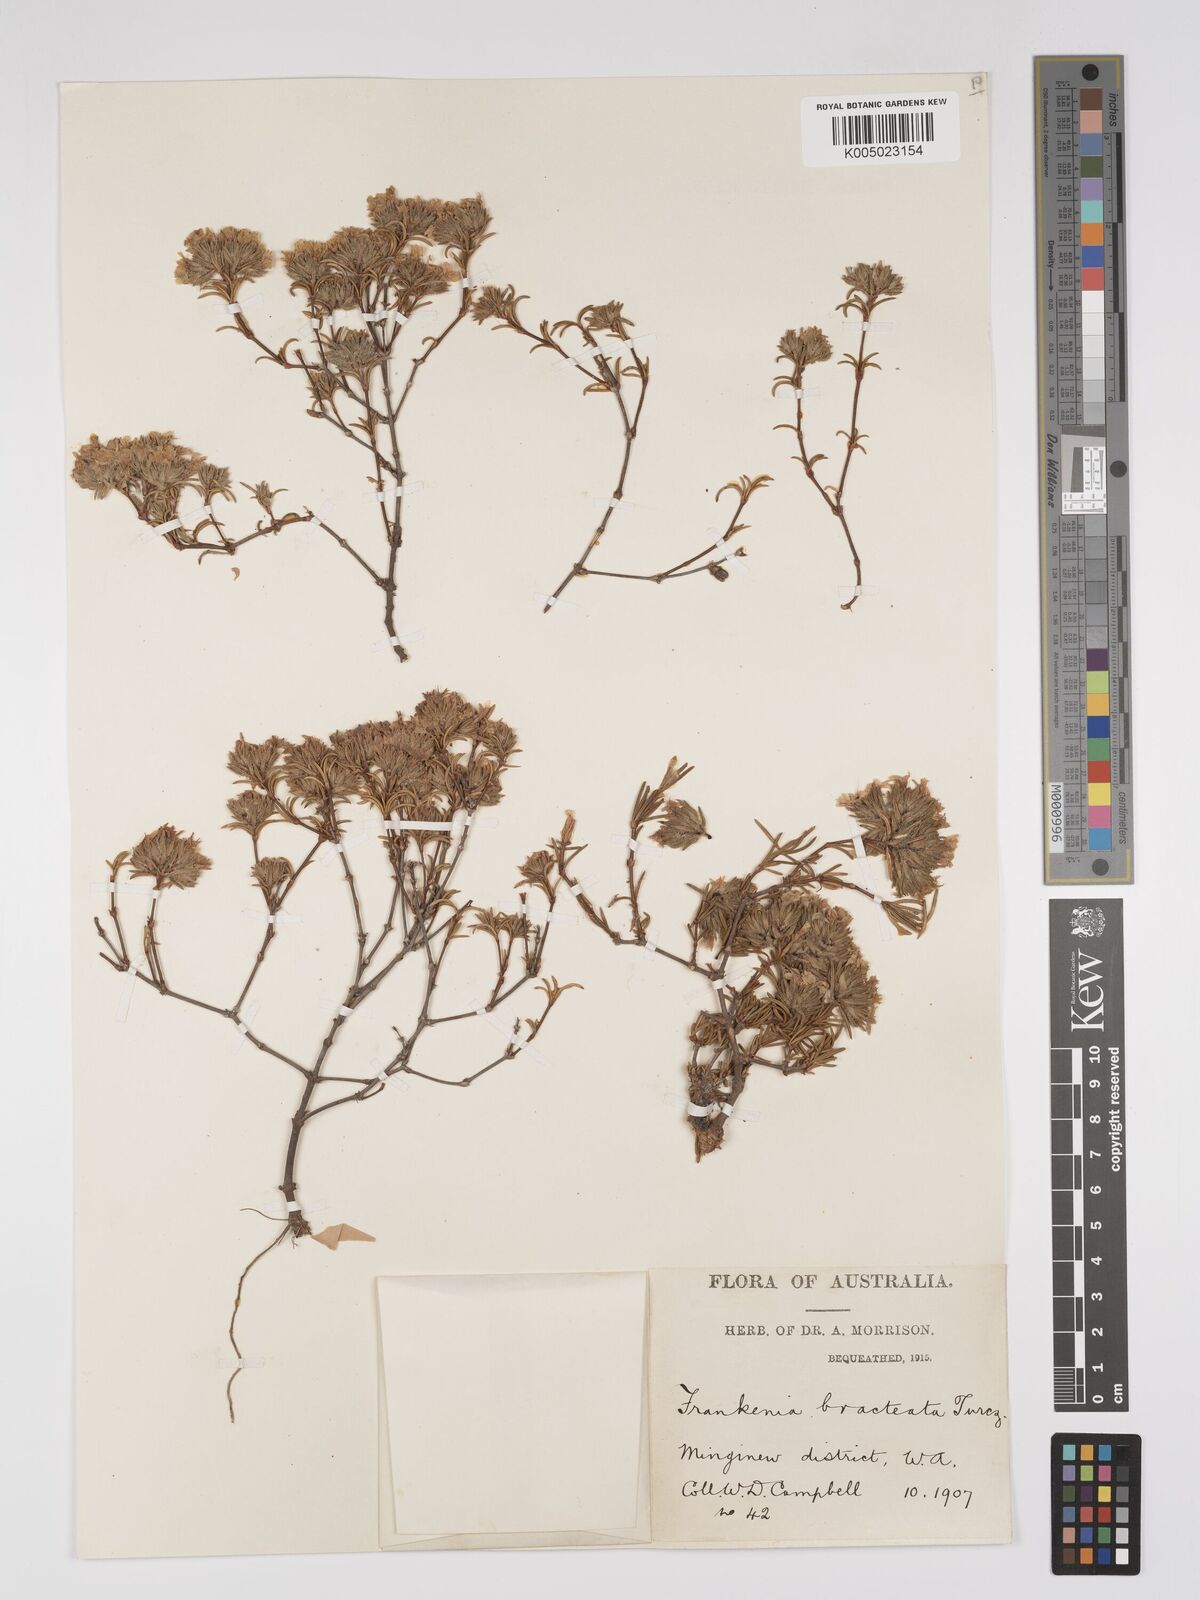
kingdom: Plantae
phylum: Tracheophyta
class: Magnoliopsida
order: Caryophyllales
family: Frankeniaceae
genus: Frankenia
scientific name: Frankenia bracteata
